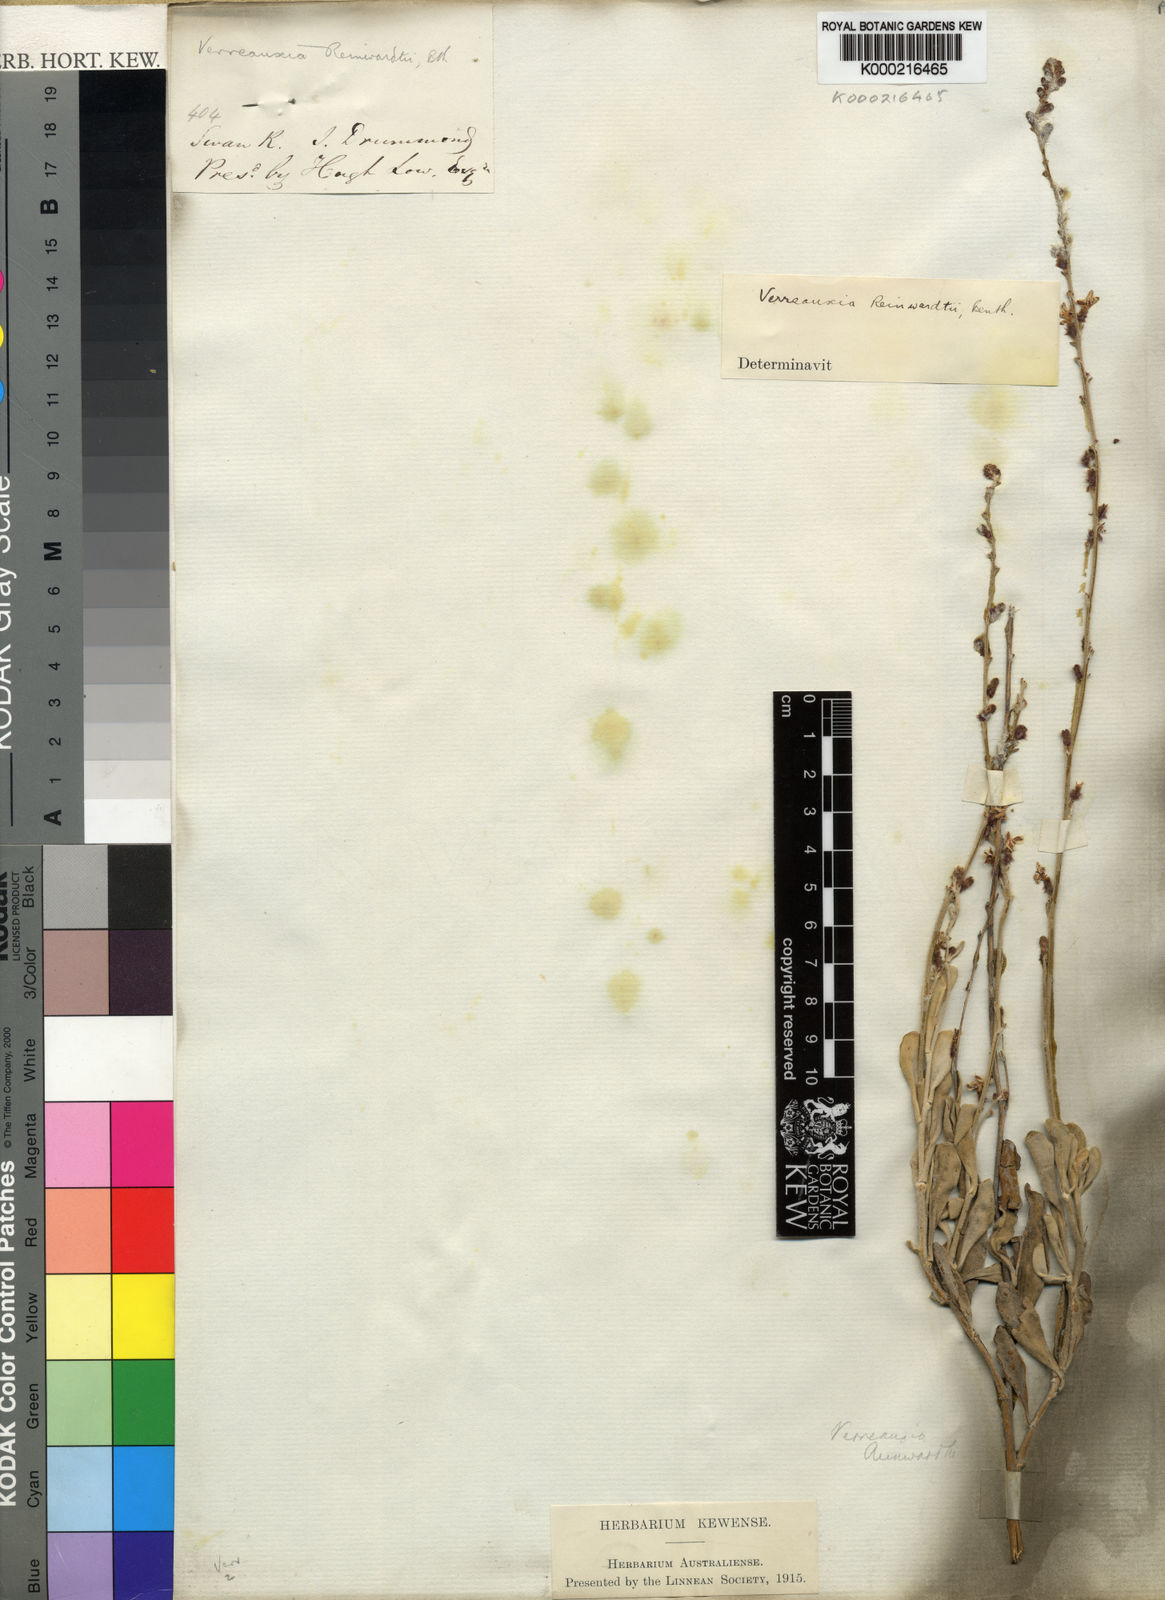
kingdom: Plantae
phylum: Tracheophyta
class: Magnoliopsida
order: Asterales
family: Goodeniaceae
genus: Goodenia
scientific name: Goodenia reinwardtii
